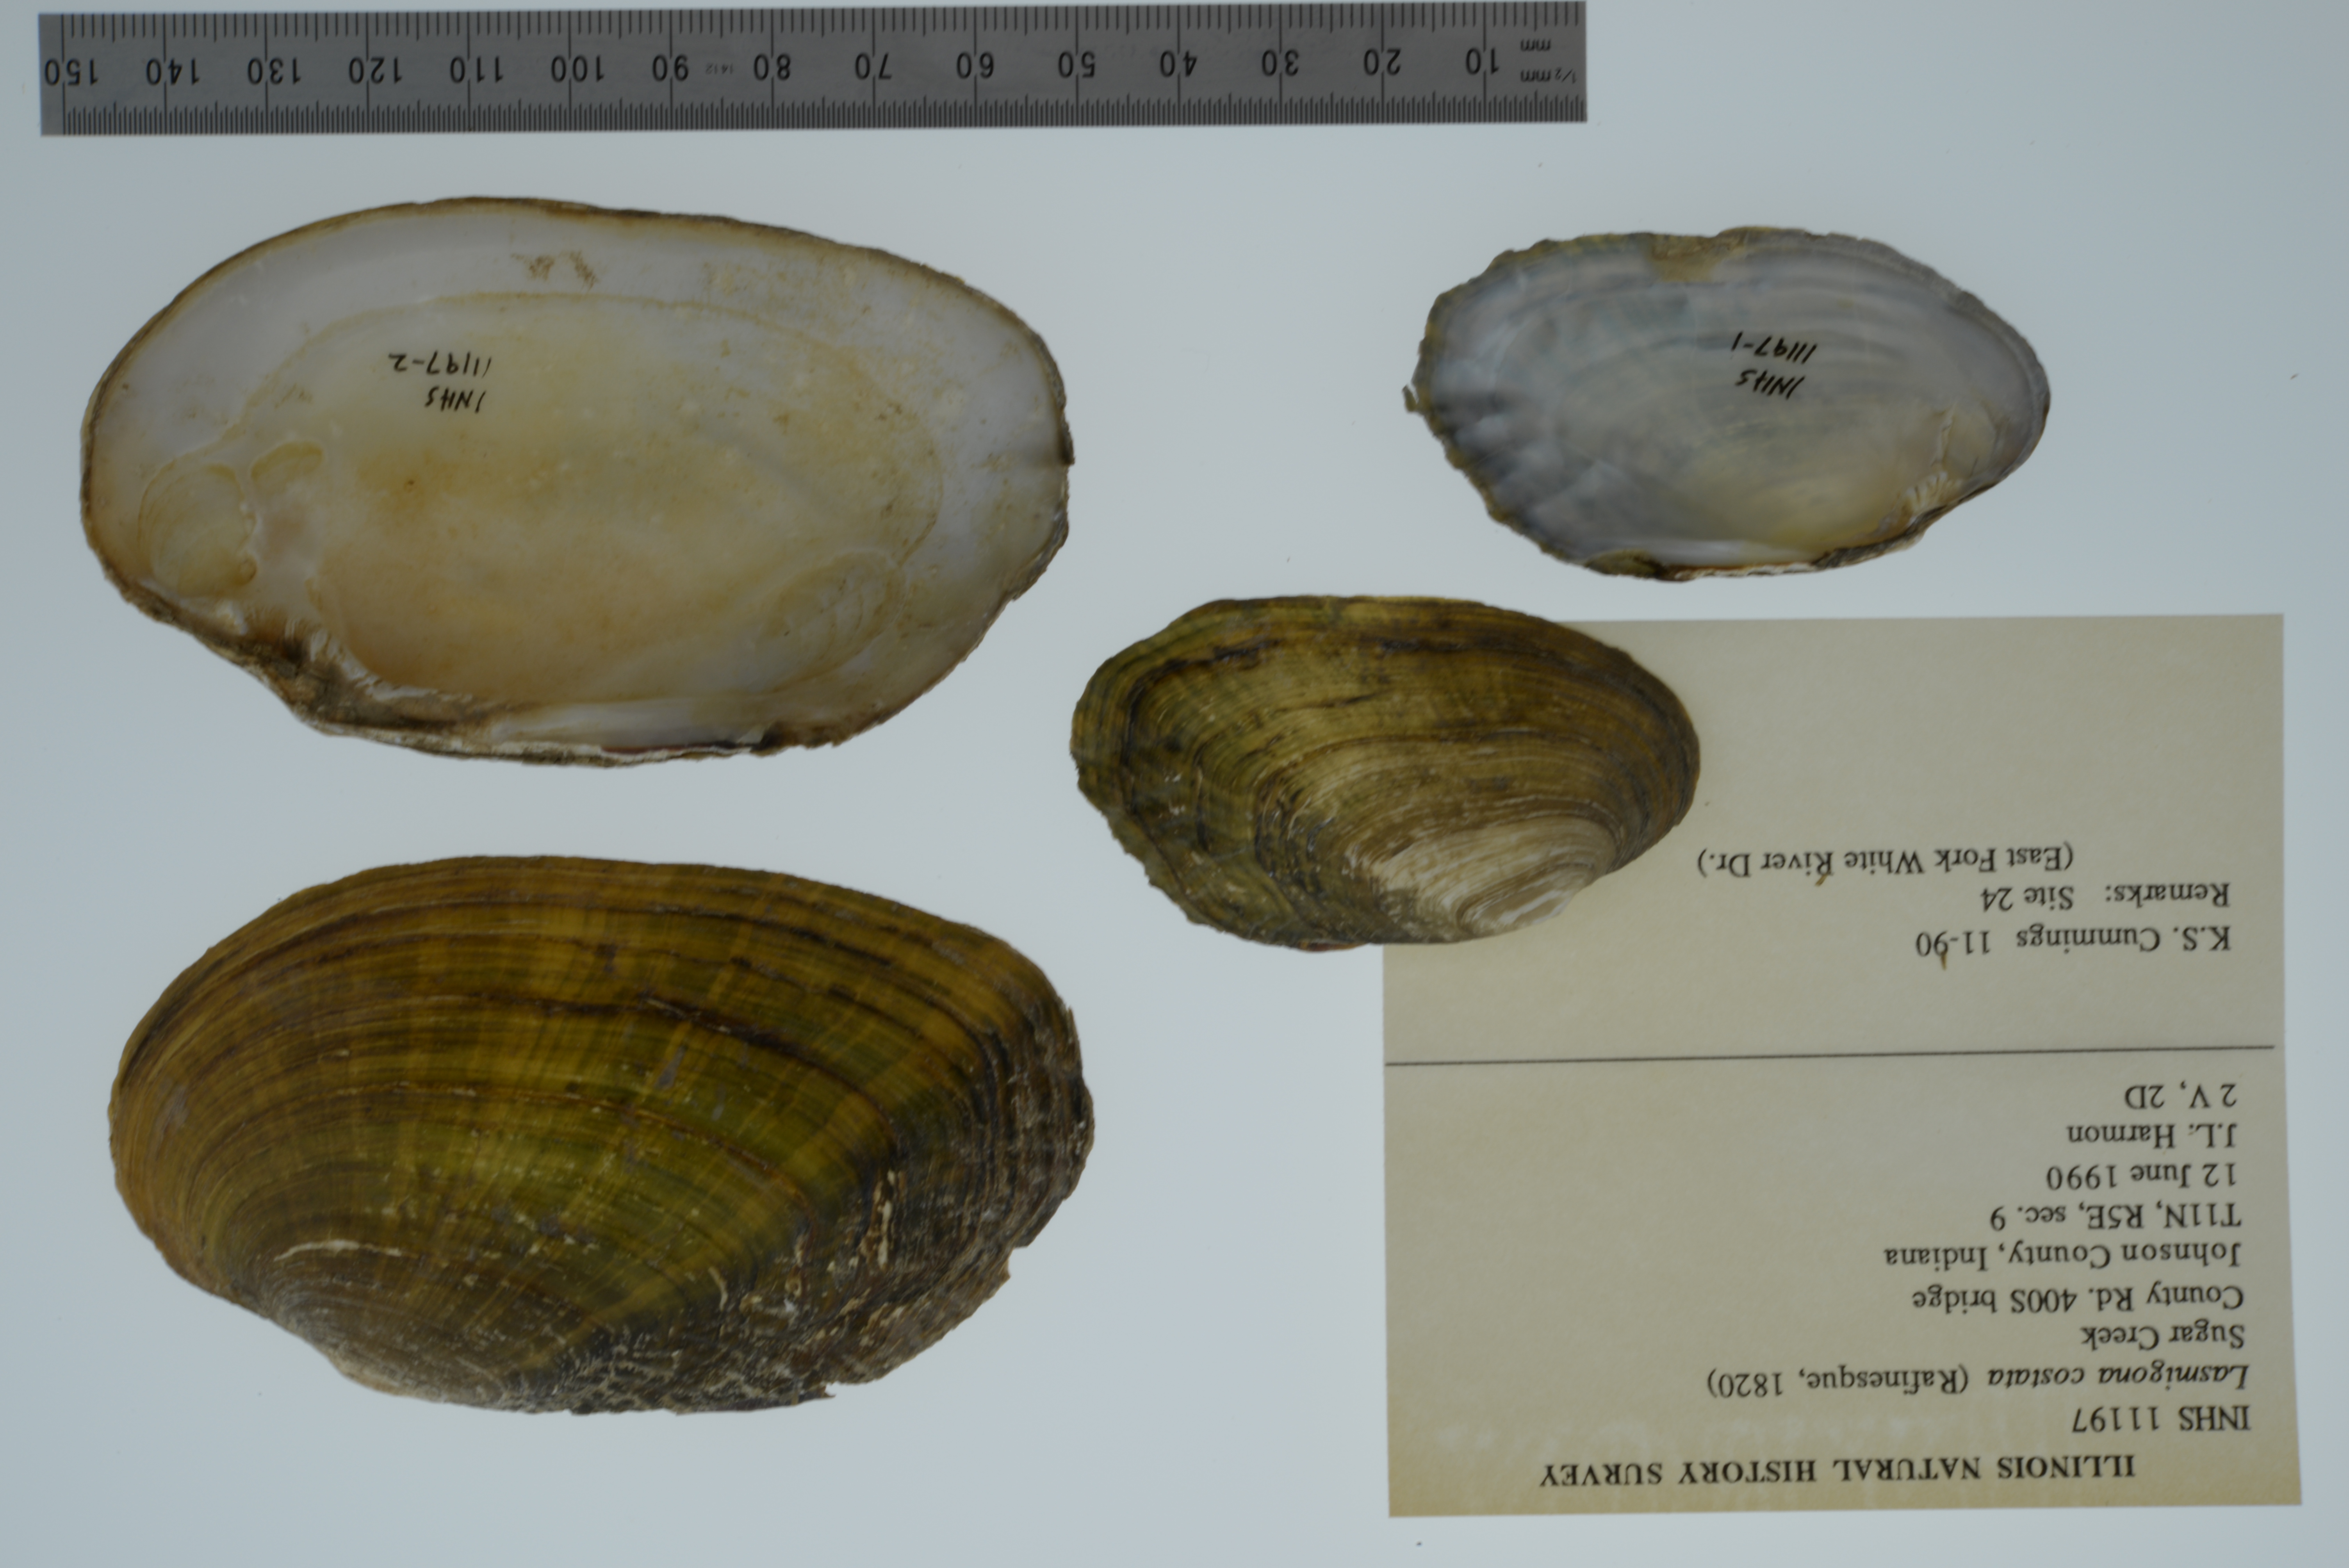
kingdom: Animalia
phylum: Mollusca
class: Bivalvia
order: Unionida
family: Unionidae
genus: Lasmigona
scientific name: Lasmigona costata
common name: Flutedshell
